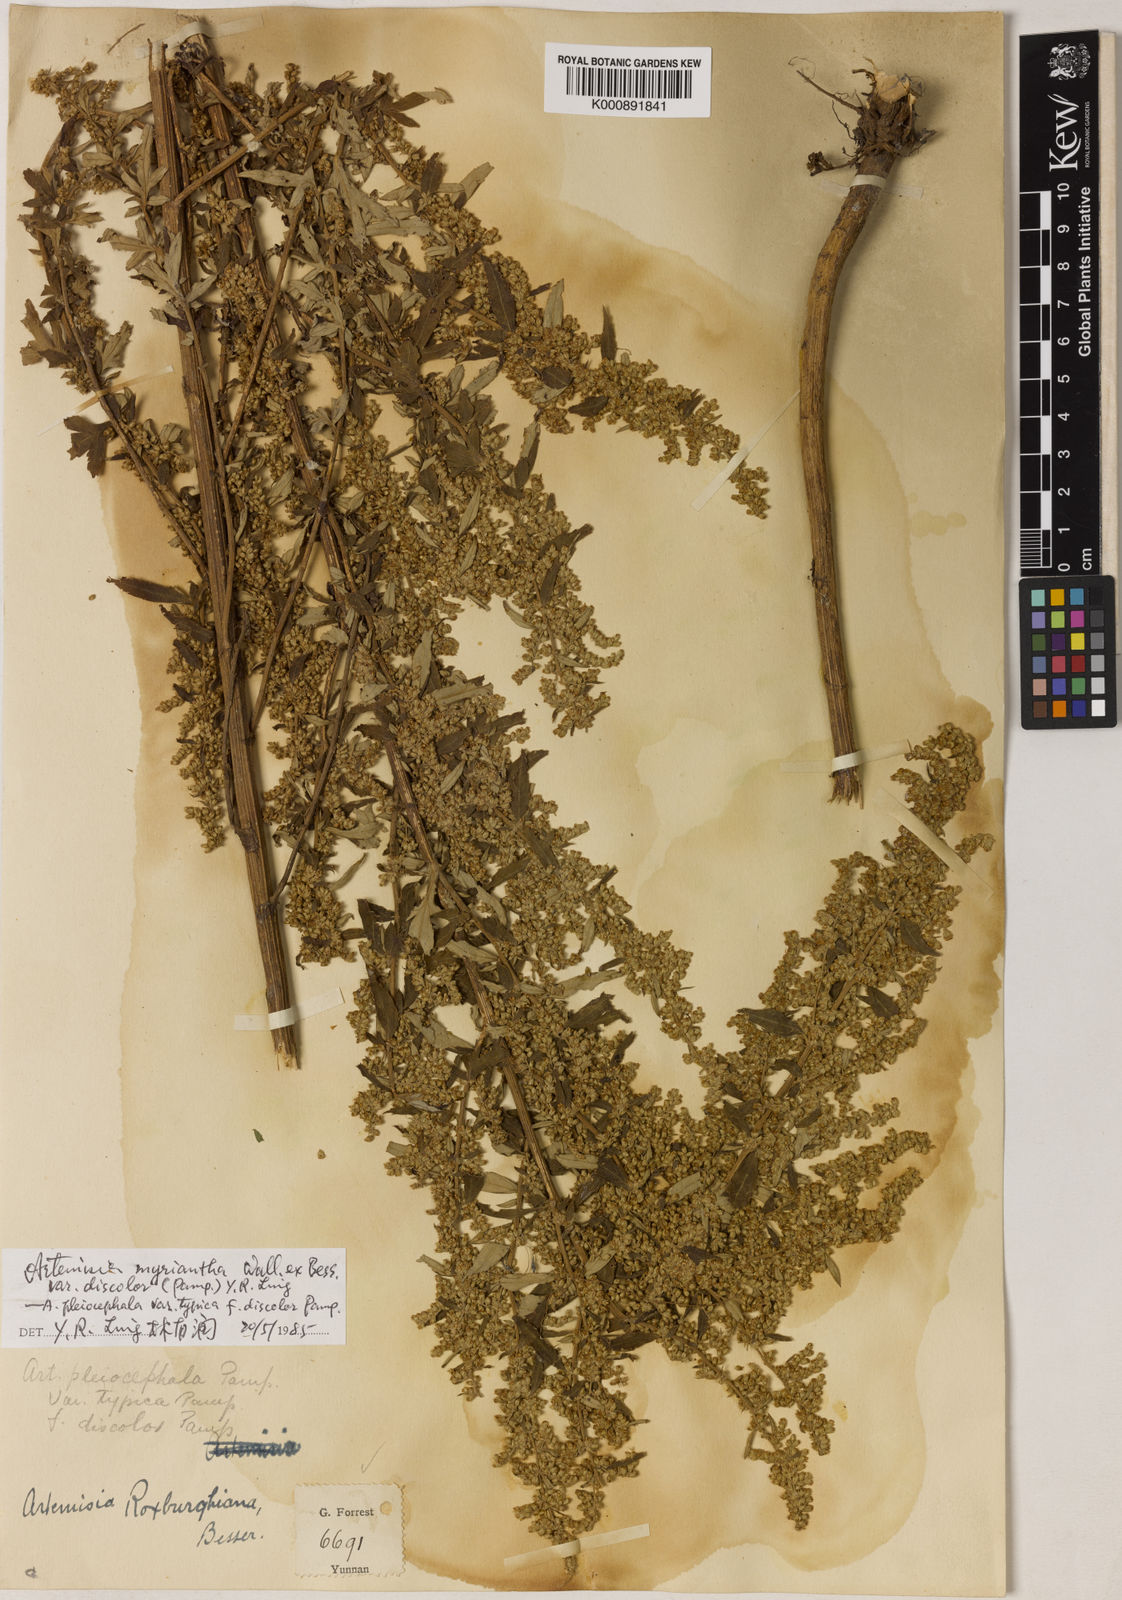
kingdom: Plantae
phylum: Tracheophyta
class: Magnoliopsida
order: Asterales
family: Asteraceae
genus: Artemisia
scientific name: Artemisia myriantha
